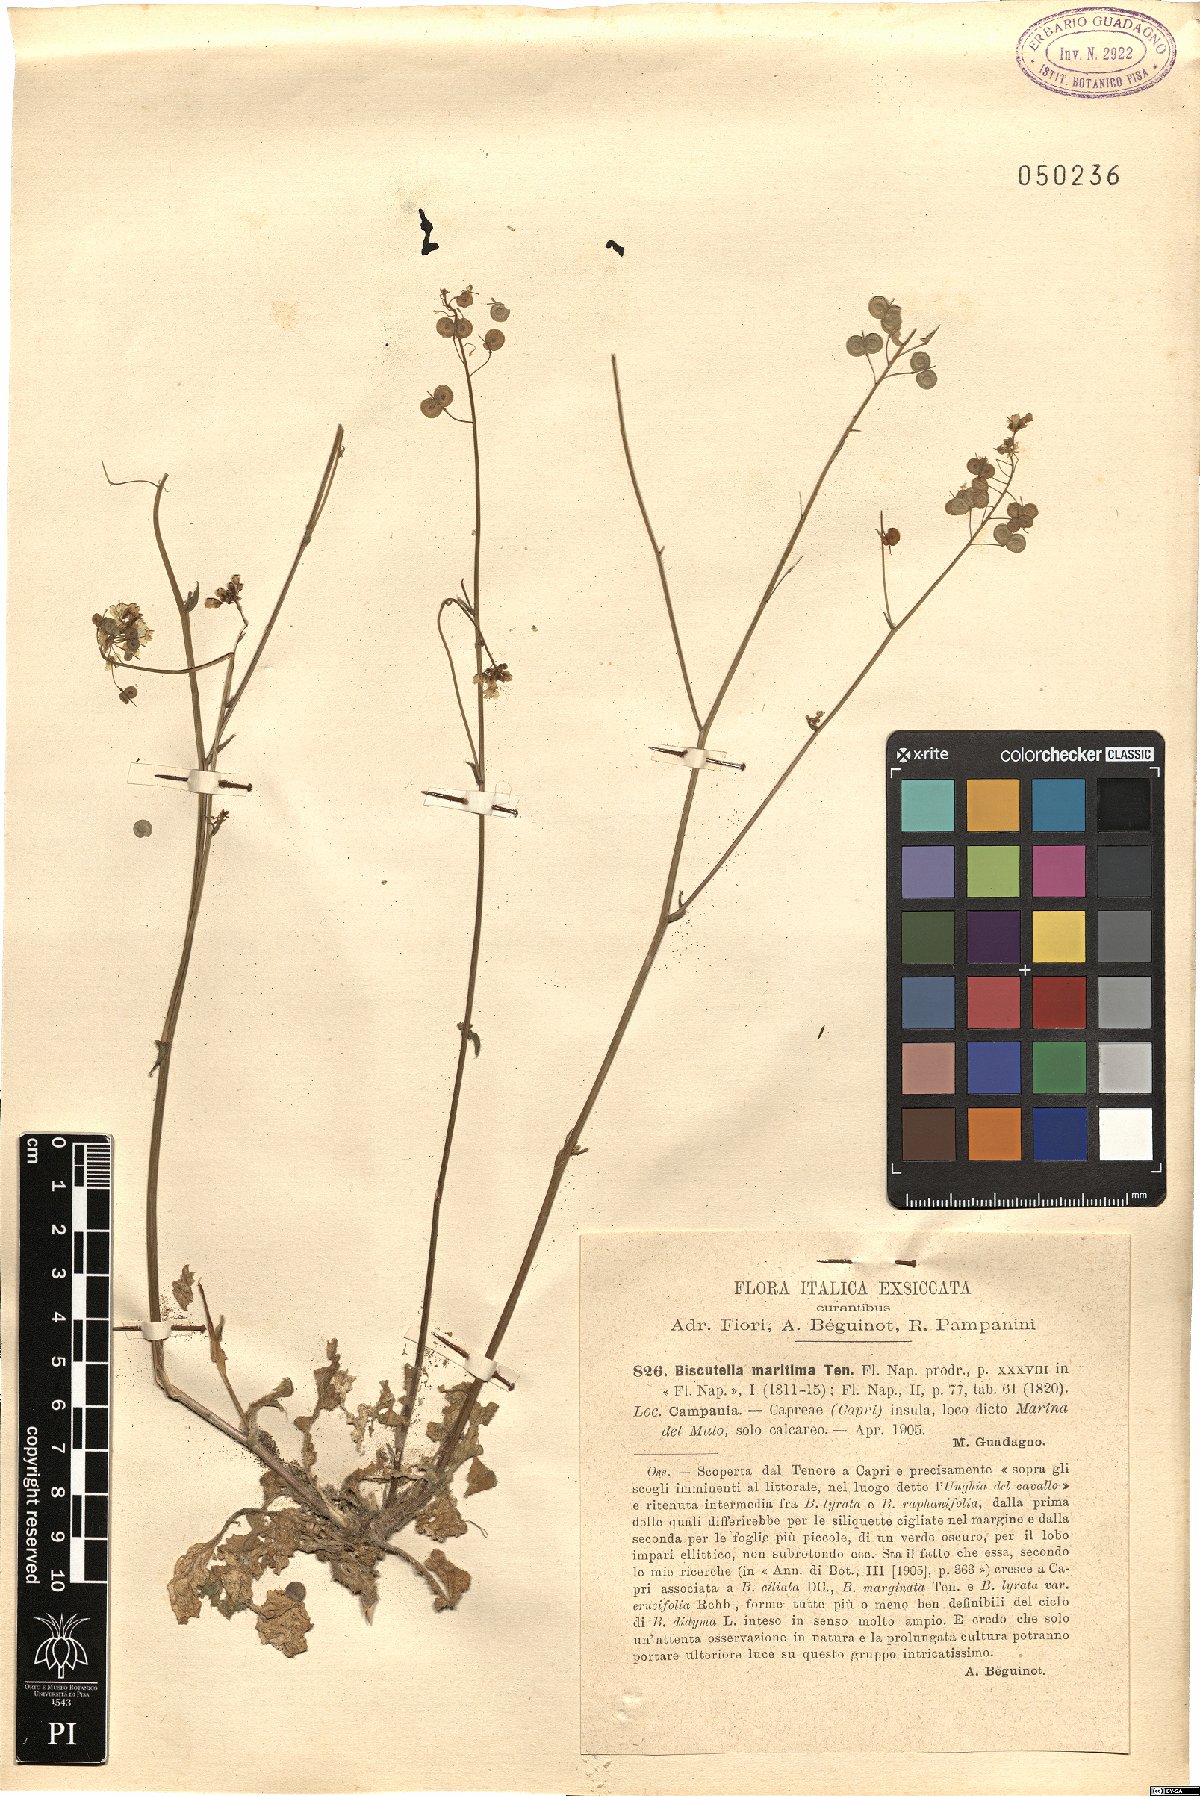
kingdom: Plantae
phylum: Tracheophyta
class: Magnoliopsida
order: Brassicales
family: Brassicaceae
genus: Biscutella
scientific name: Biscutella maritima
